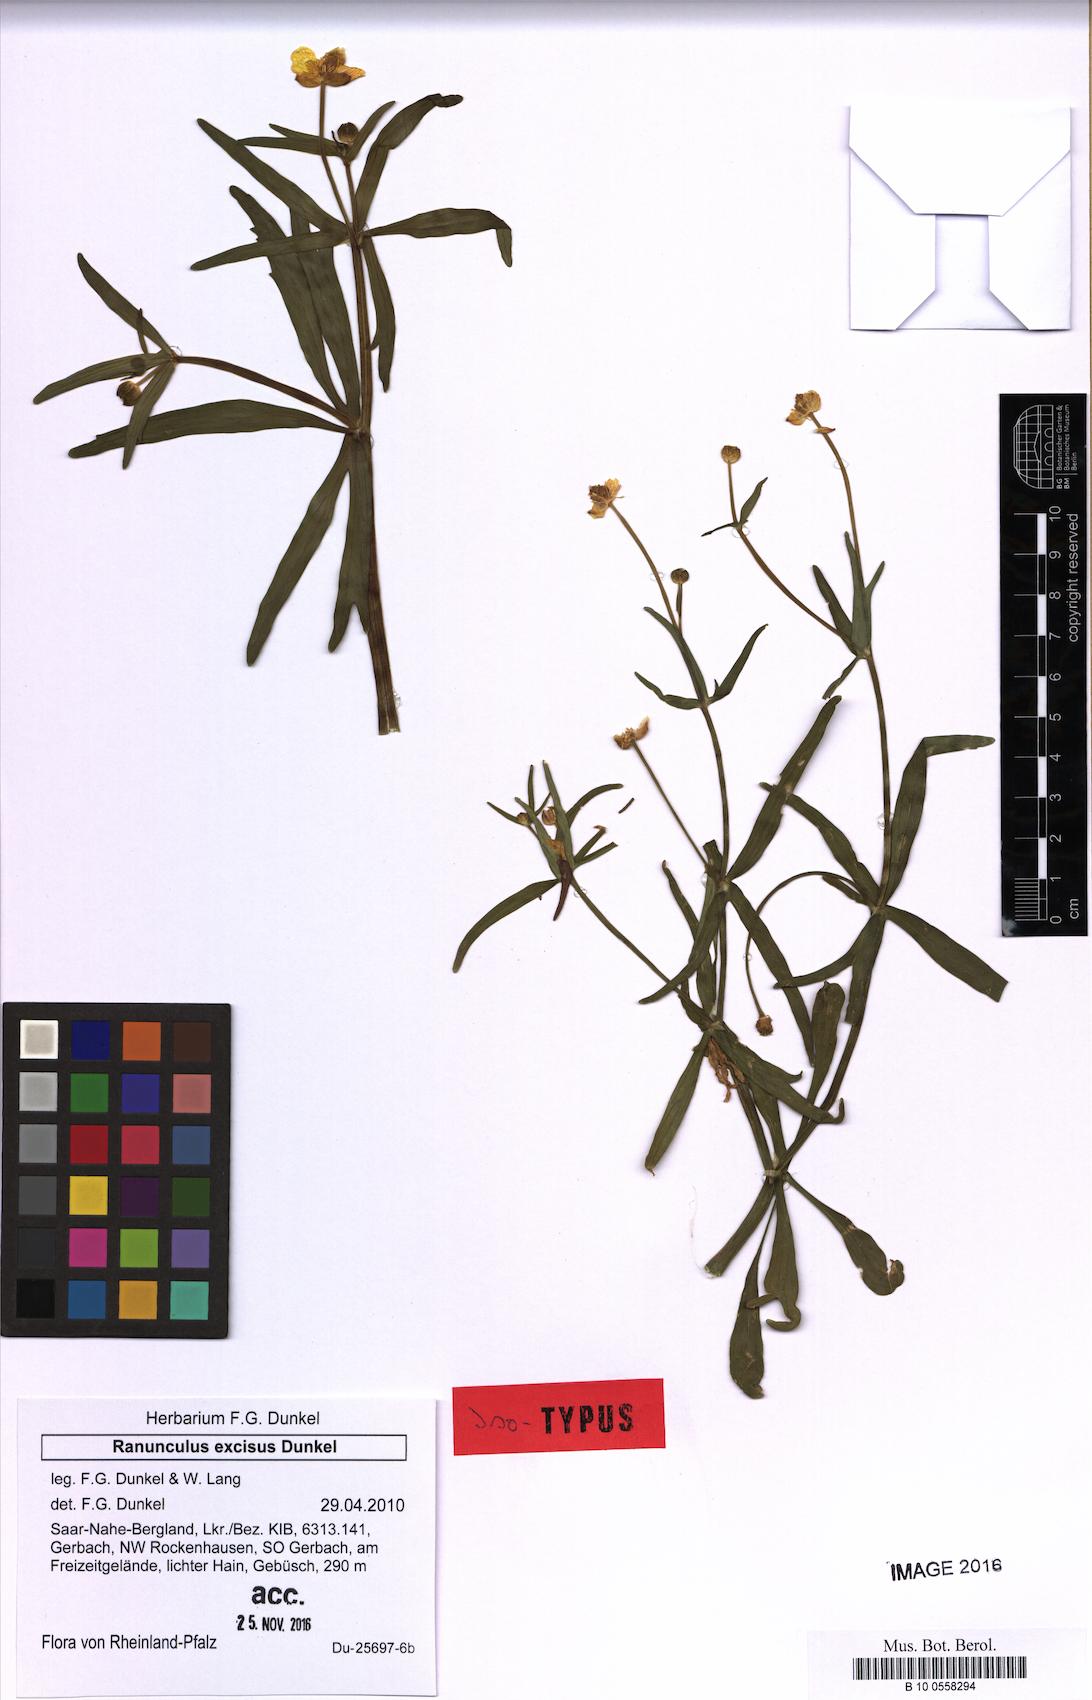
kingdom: Plantae
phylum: Tracheophyta
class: Magnoliopsida
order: Ranunculales
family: Ranunculaceae
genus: Ranunculus
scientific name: Ranunculus excisus
